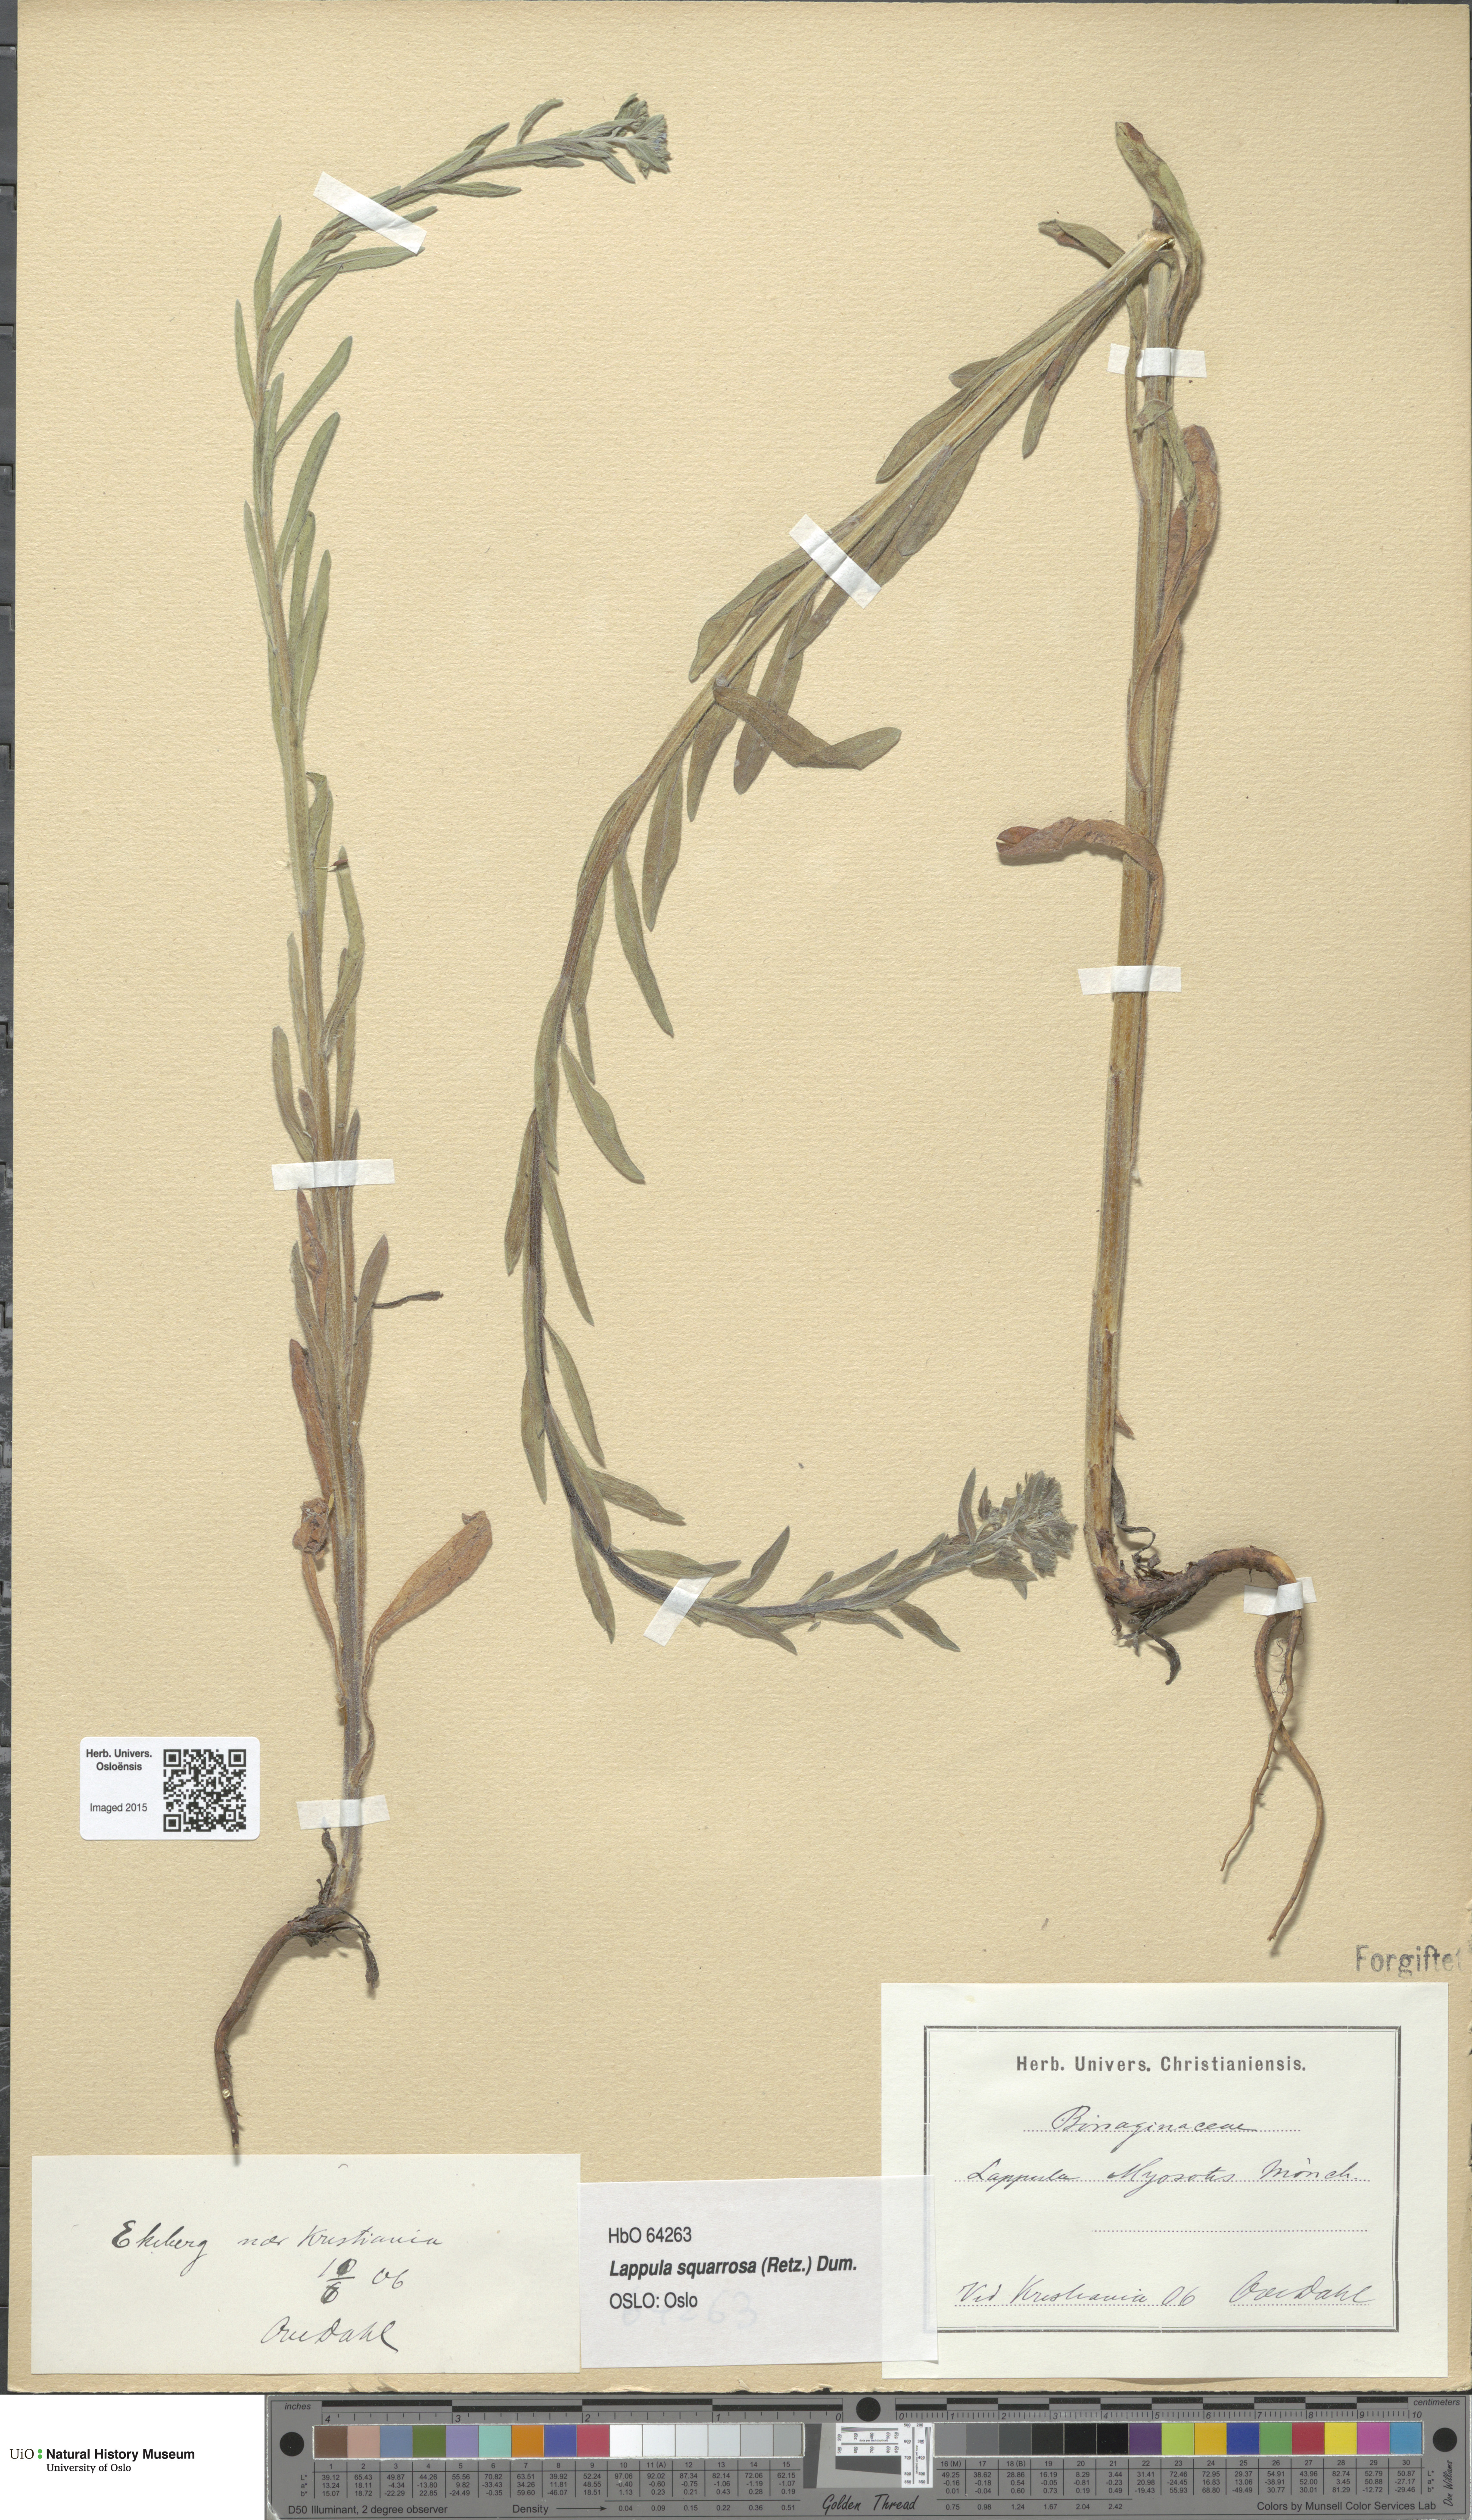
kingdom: Plantae
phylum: Tracheophyta
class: Magnoliopsida
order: Boraginales
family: Boraginaceae
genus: Lappula
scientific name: Lappula squarrosa
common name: European stickseed
